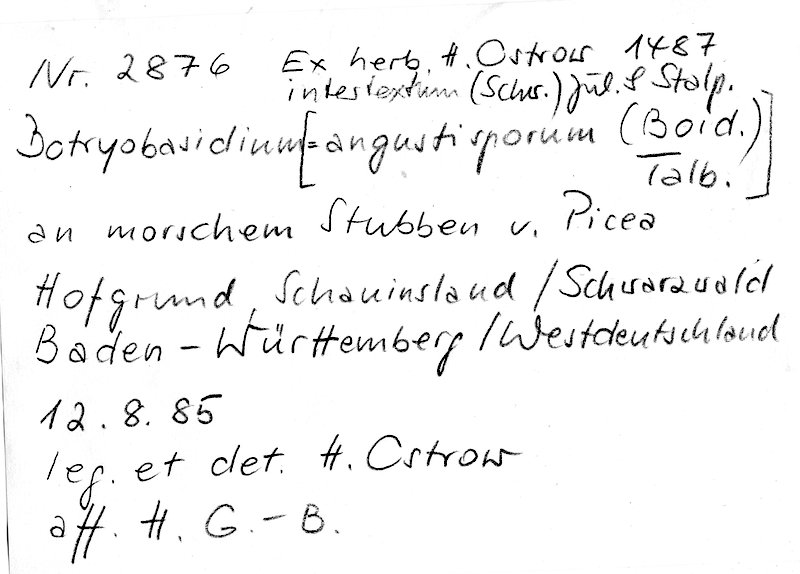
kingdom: Plantae
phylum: Tracheophyta
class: Pinopsida
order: Pinales
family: Pinaceae
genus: Picea
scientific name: Picea
